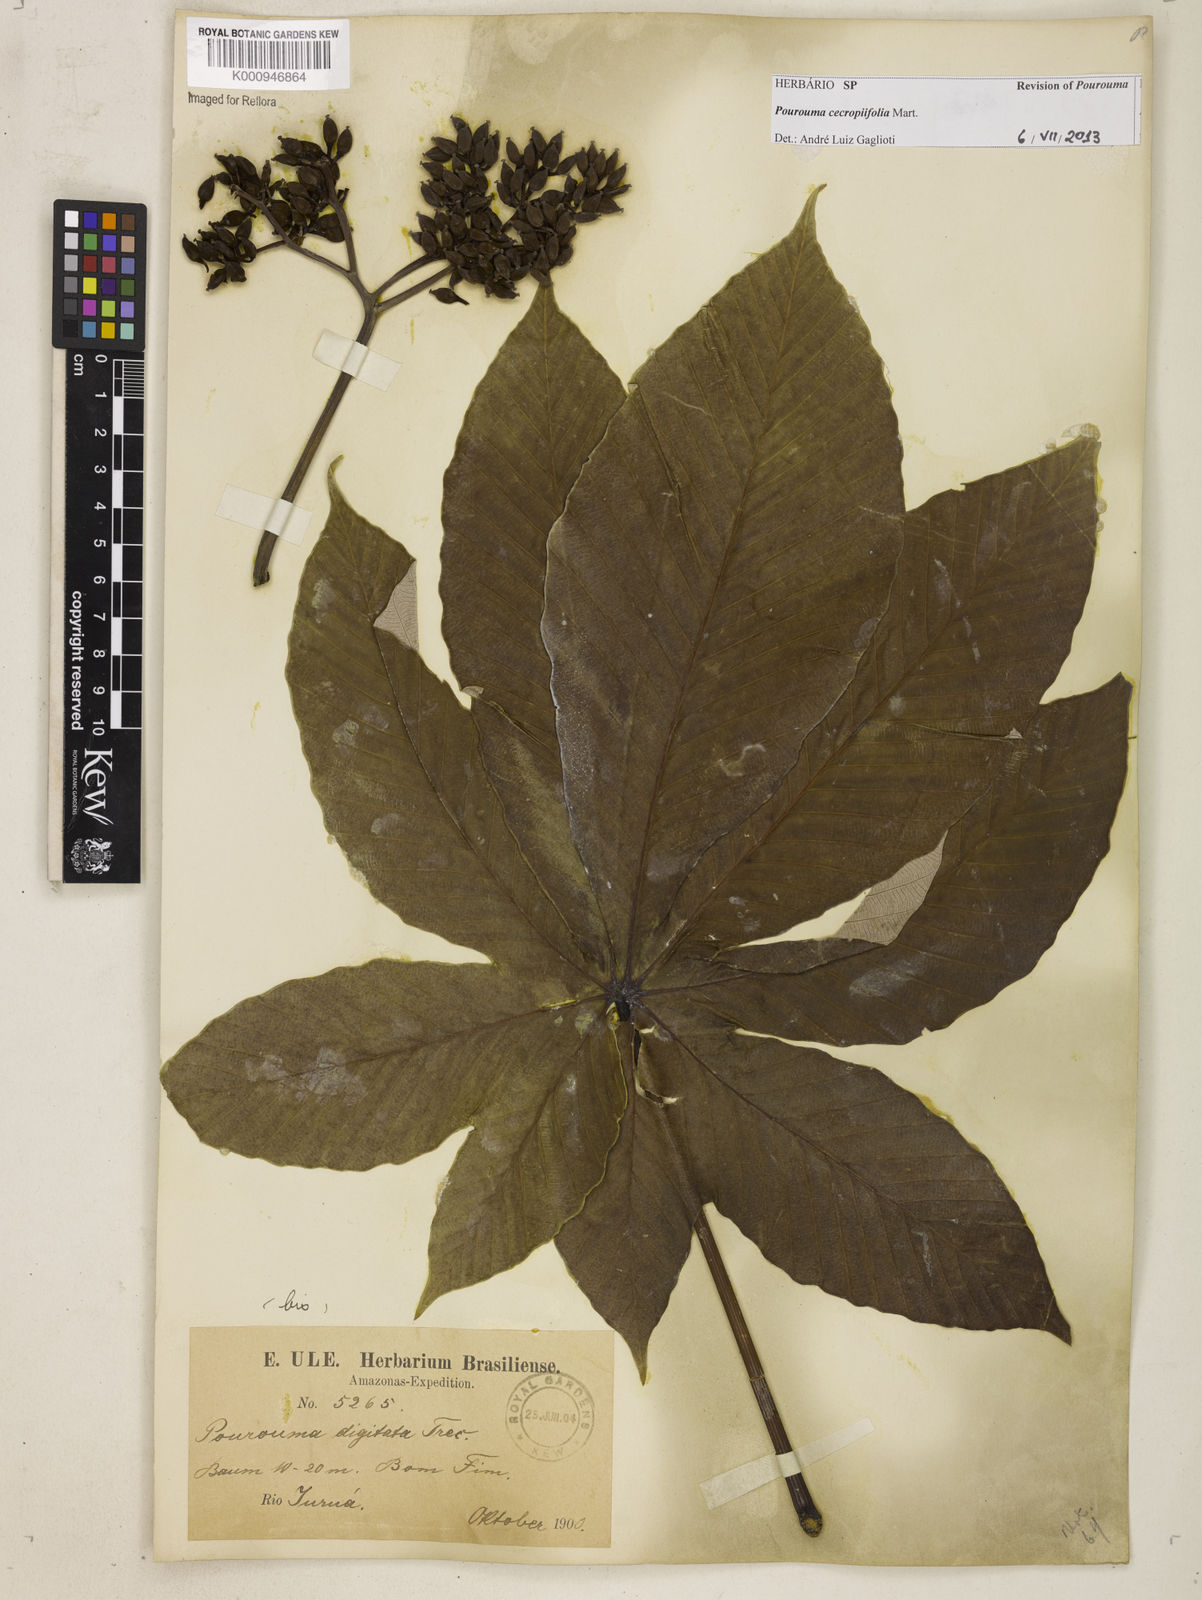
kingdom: Plantae
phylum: Tracheophyta
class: Magnoliopsida
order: Rosales
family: Urticaceae
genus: Pourouma
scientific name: Pourouma cecropiifolia
